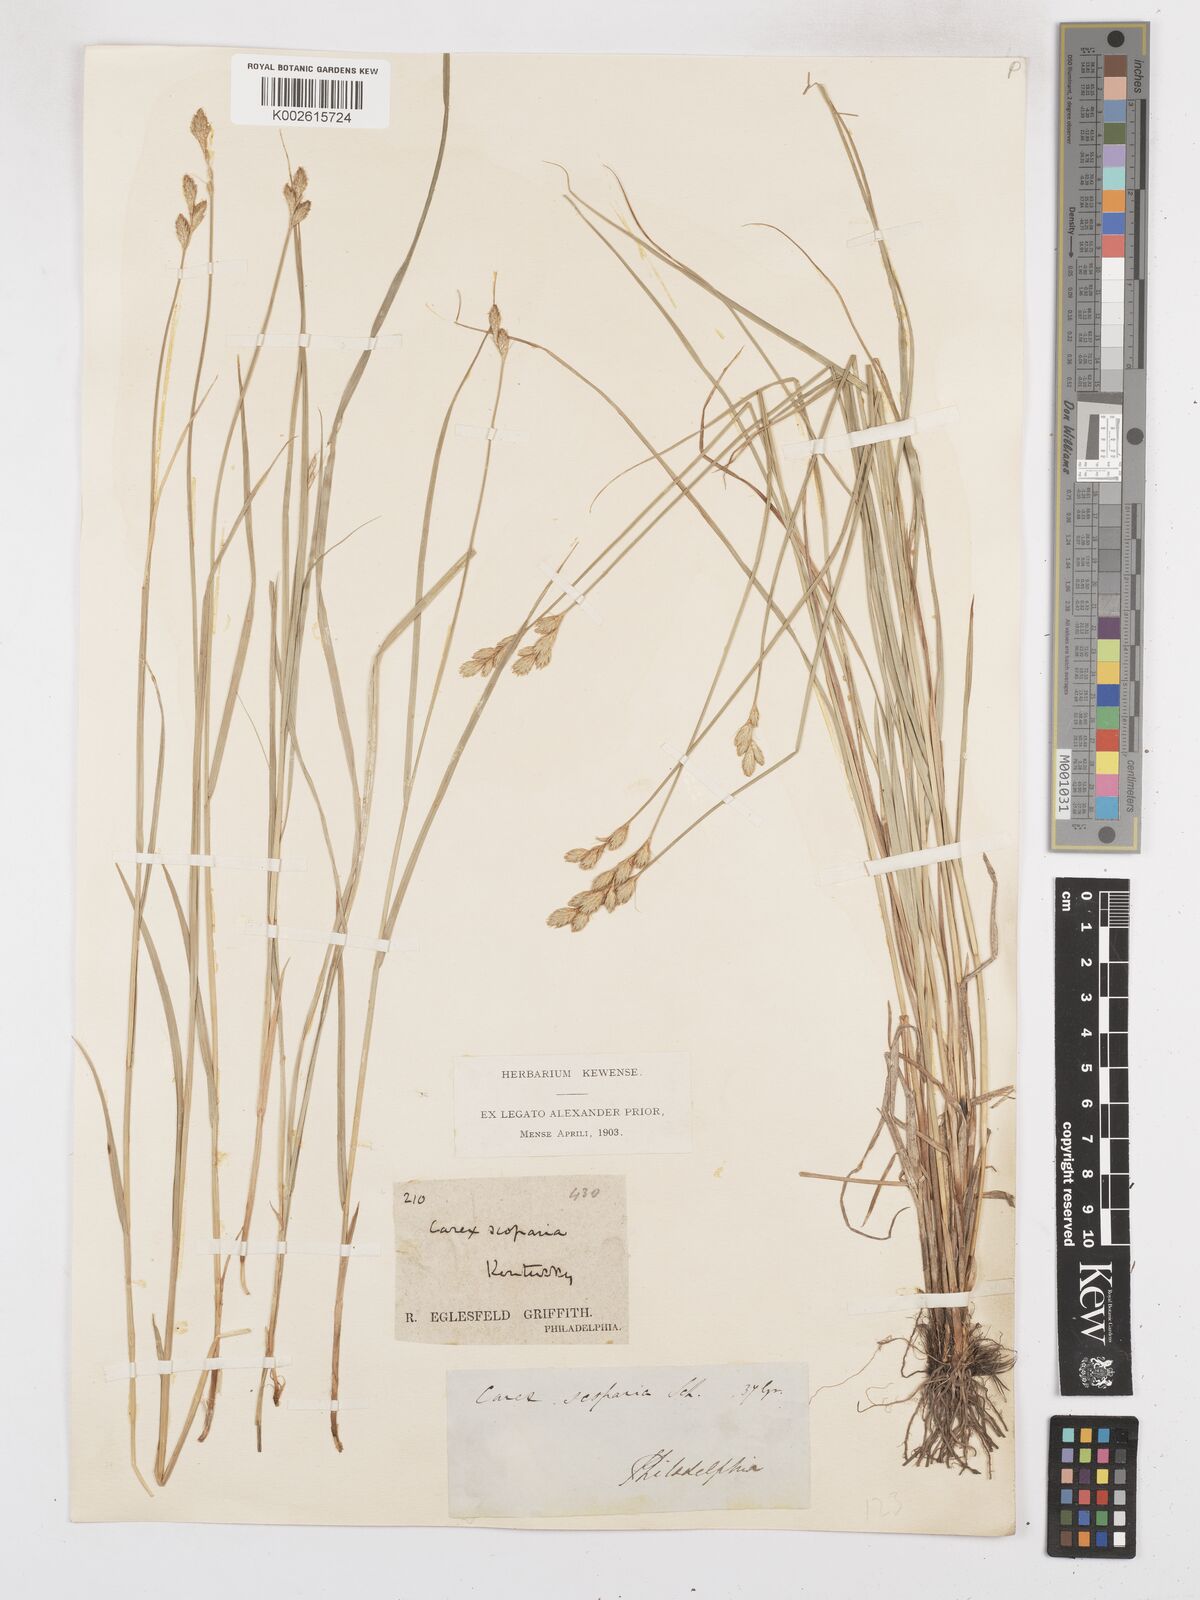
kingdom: Plantae
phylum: Tracheophyta
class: Liliopsida
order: Poales
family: Cyperaceae
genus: Carex
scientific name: Carex leporina
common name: Oval sedge
